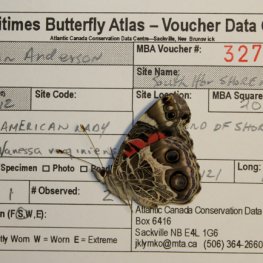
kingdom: Animalia
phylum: Arthropoda
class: Insecta
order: Lepidoptera
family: Nymphalidae
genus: Vanessa
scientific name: Vanessa virginiensis
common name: American Lady
